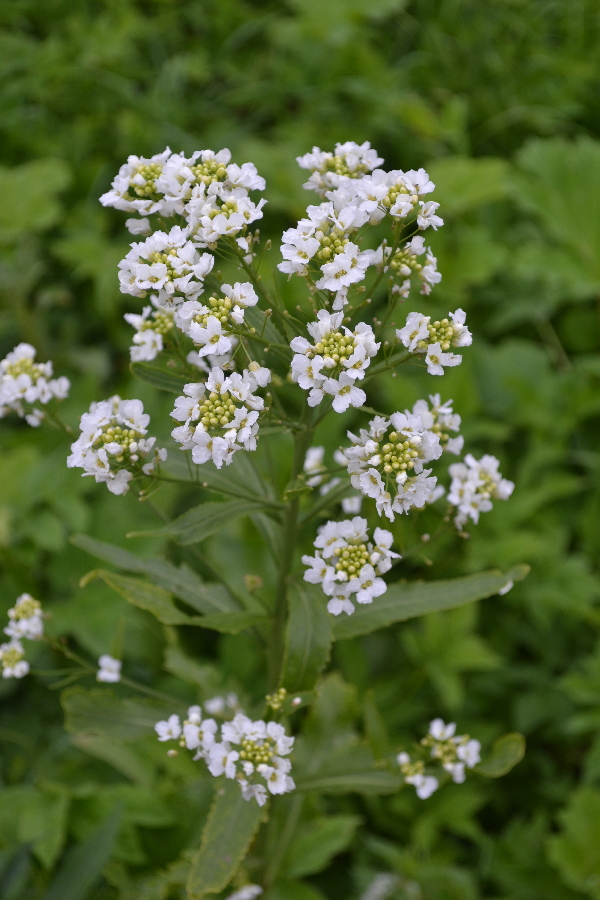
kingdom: Plantae
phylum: Tracheophyta
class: Magnoliopsida
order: Brassicales
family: Brassicaceae
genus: Armoracia
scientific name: Armoracia rusticana
